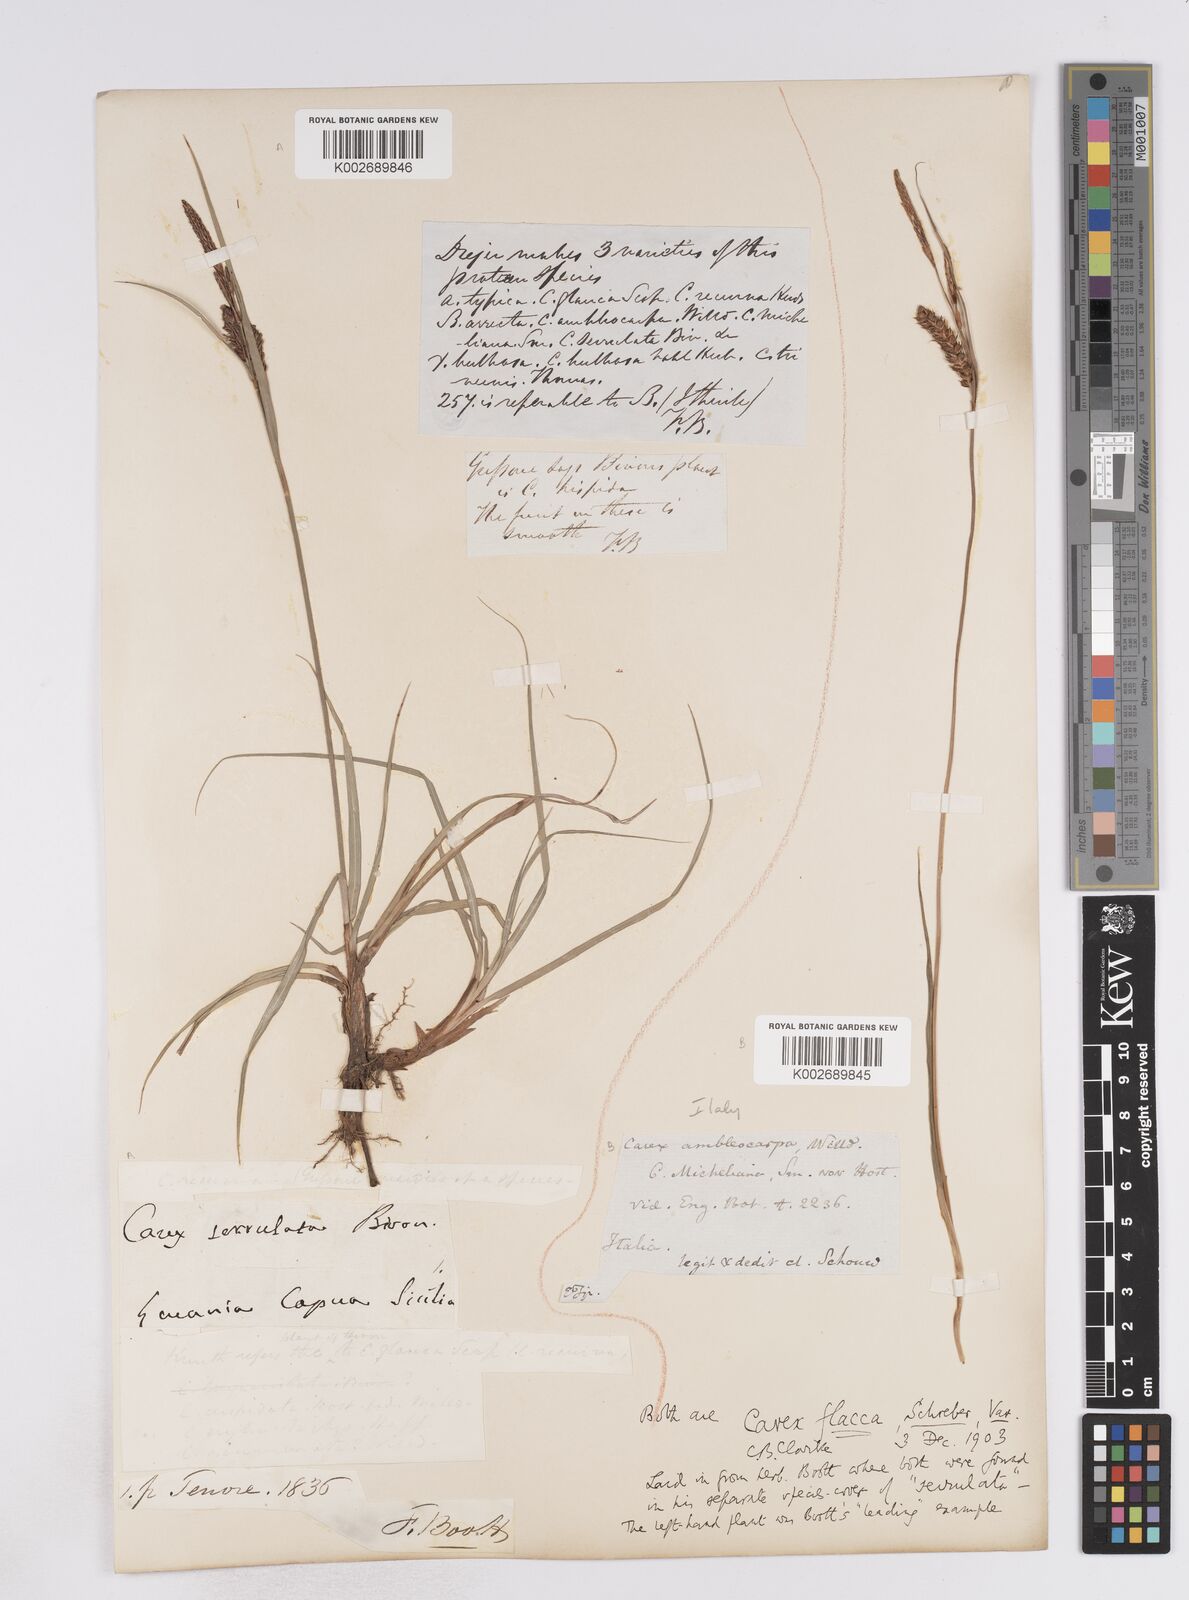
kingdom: Plantae
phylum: Tracheophyta
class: Liliopsida
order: Poales
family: Cyperaceae
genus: Carex
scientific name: Carex flacca
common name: Glaucous sedge
